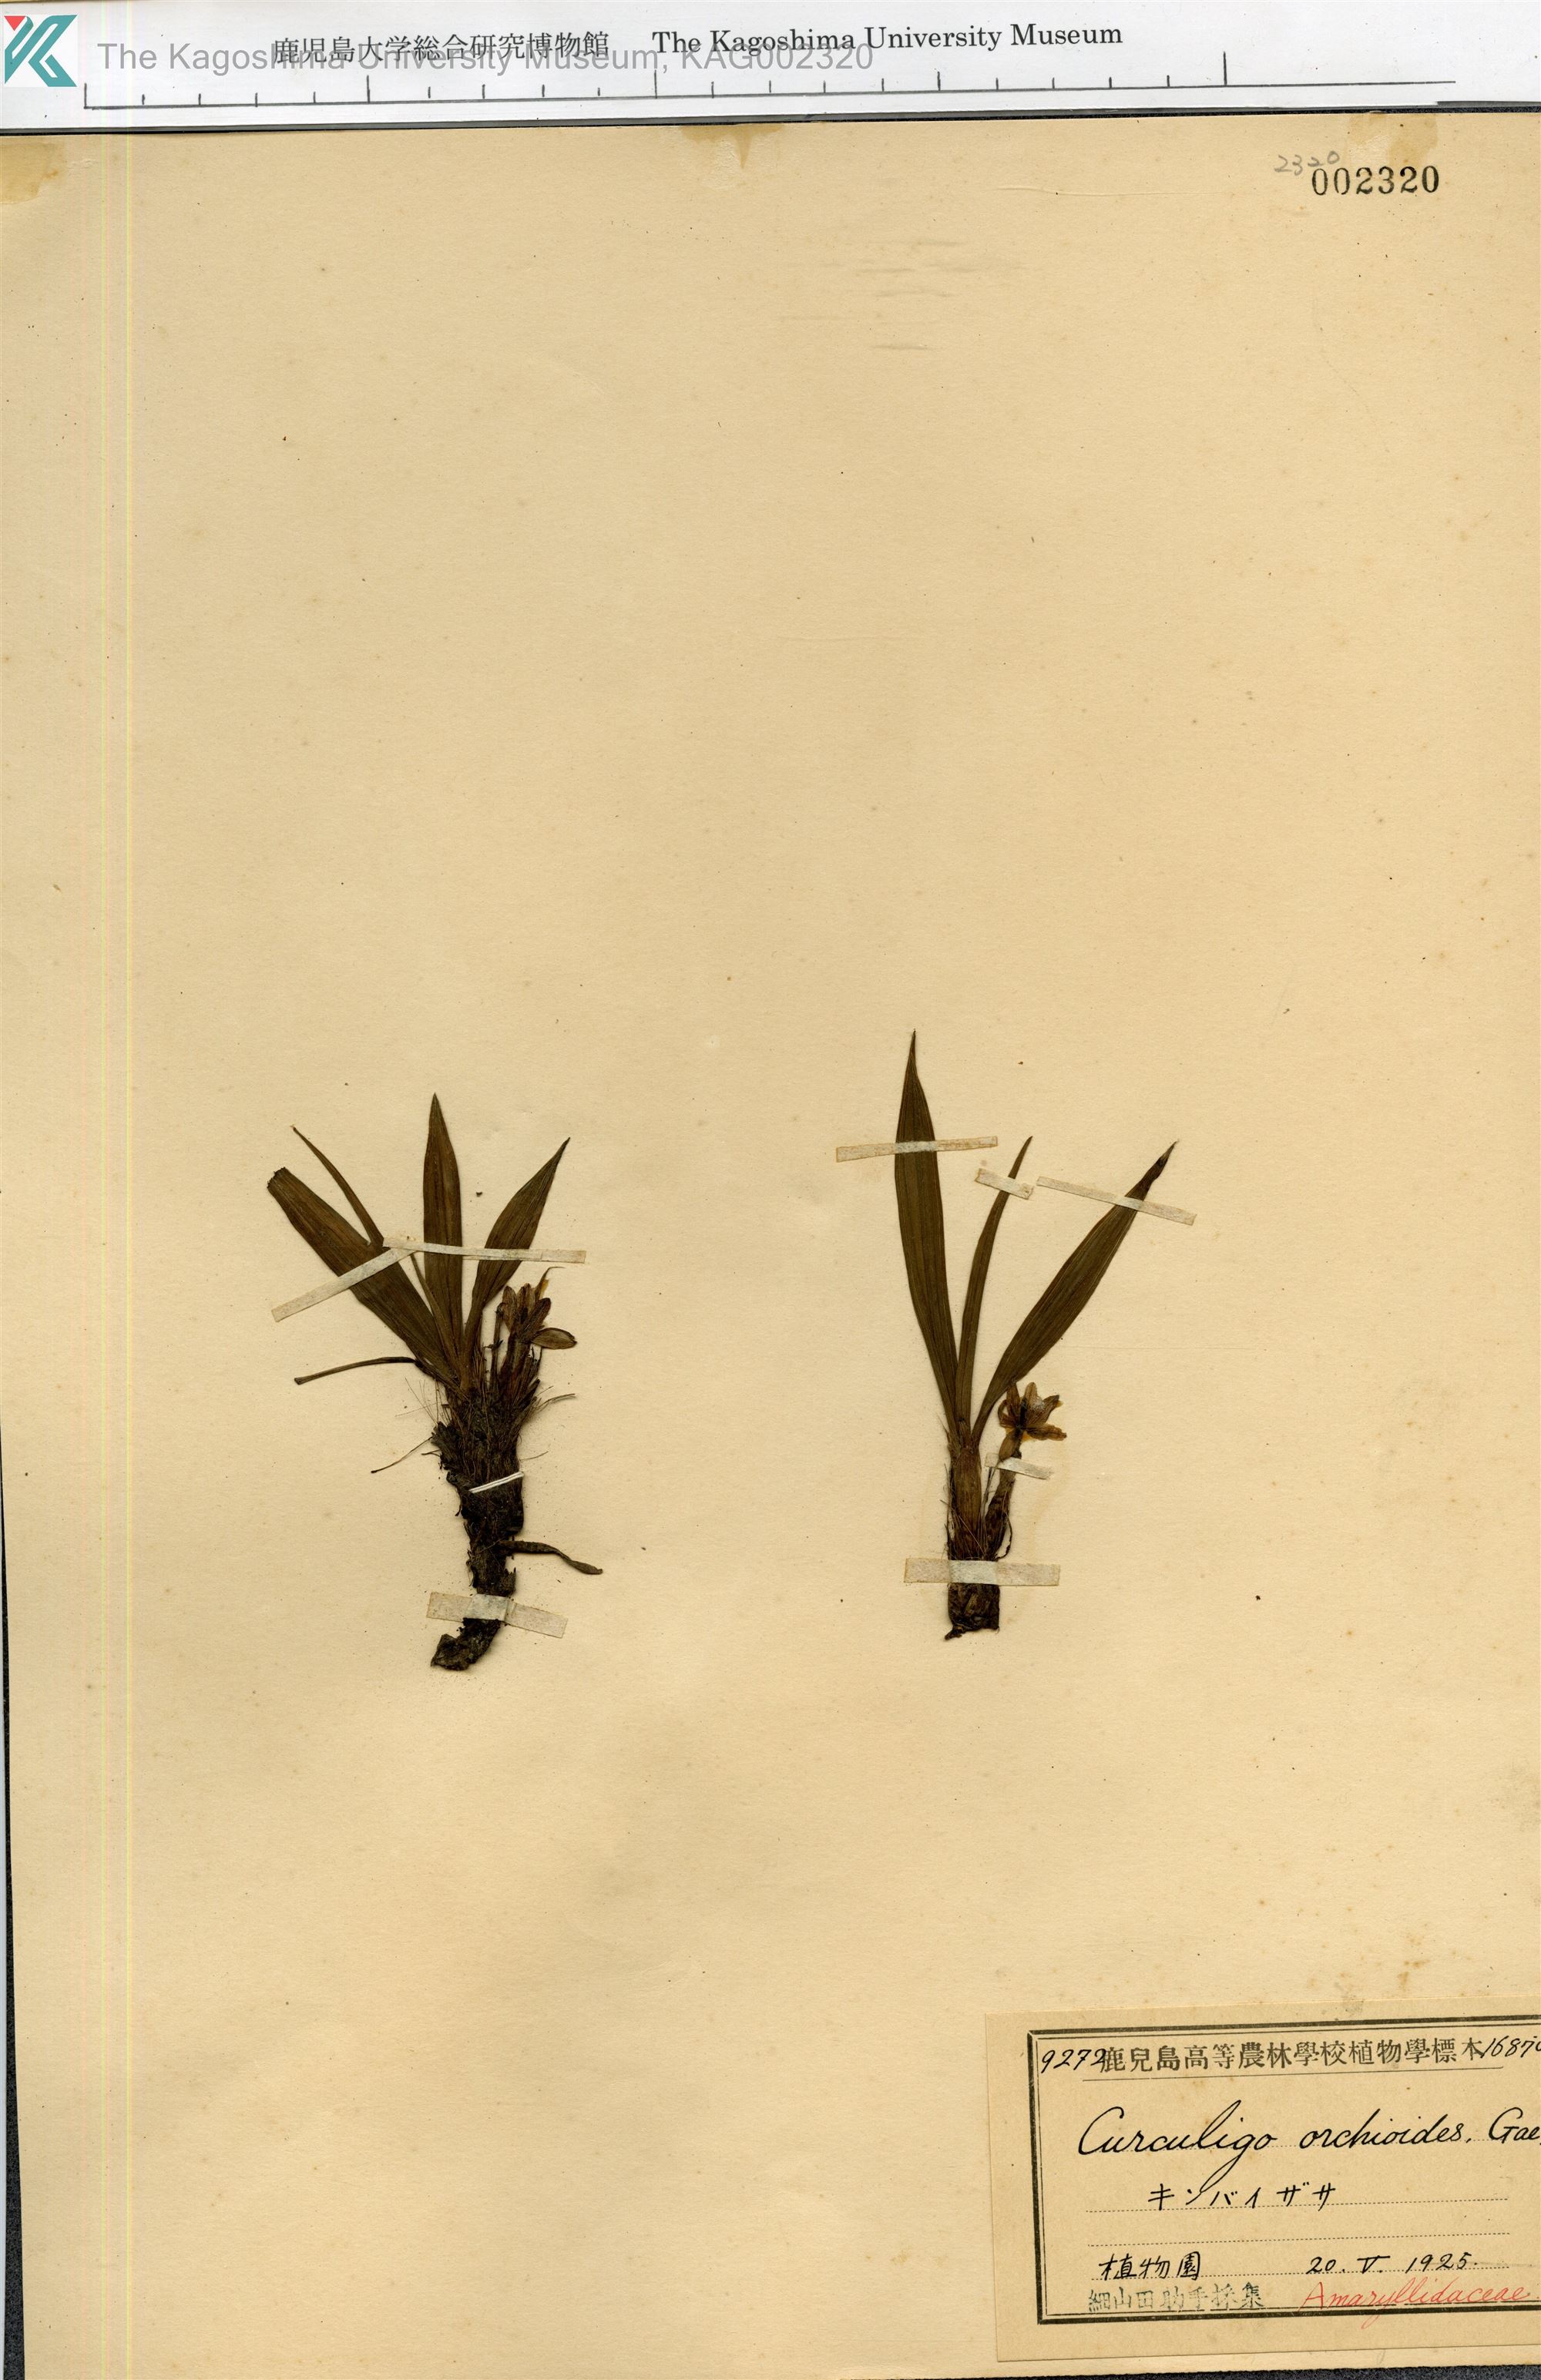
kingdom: Plantae
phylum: Tracheophyta
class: Liliopsida
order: Asparagales
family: Hypoxidaceae
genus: Curculigo
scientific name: Curculigo orchioides
